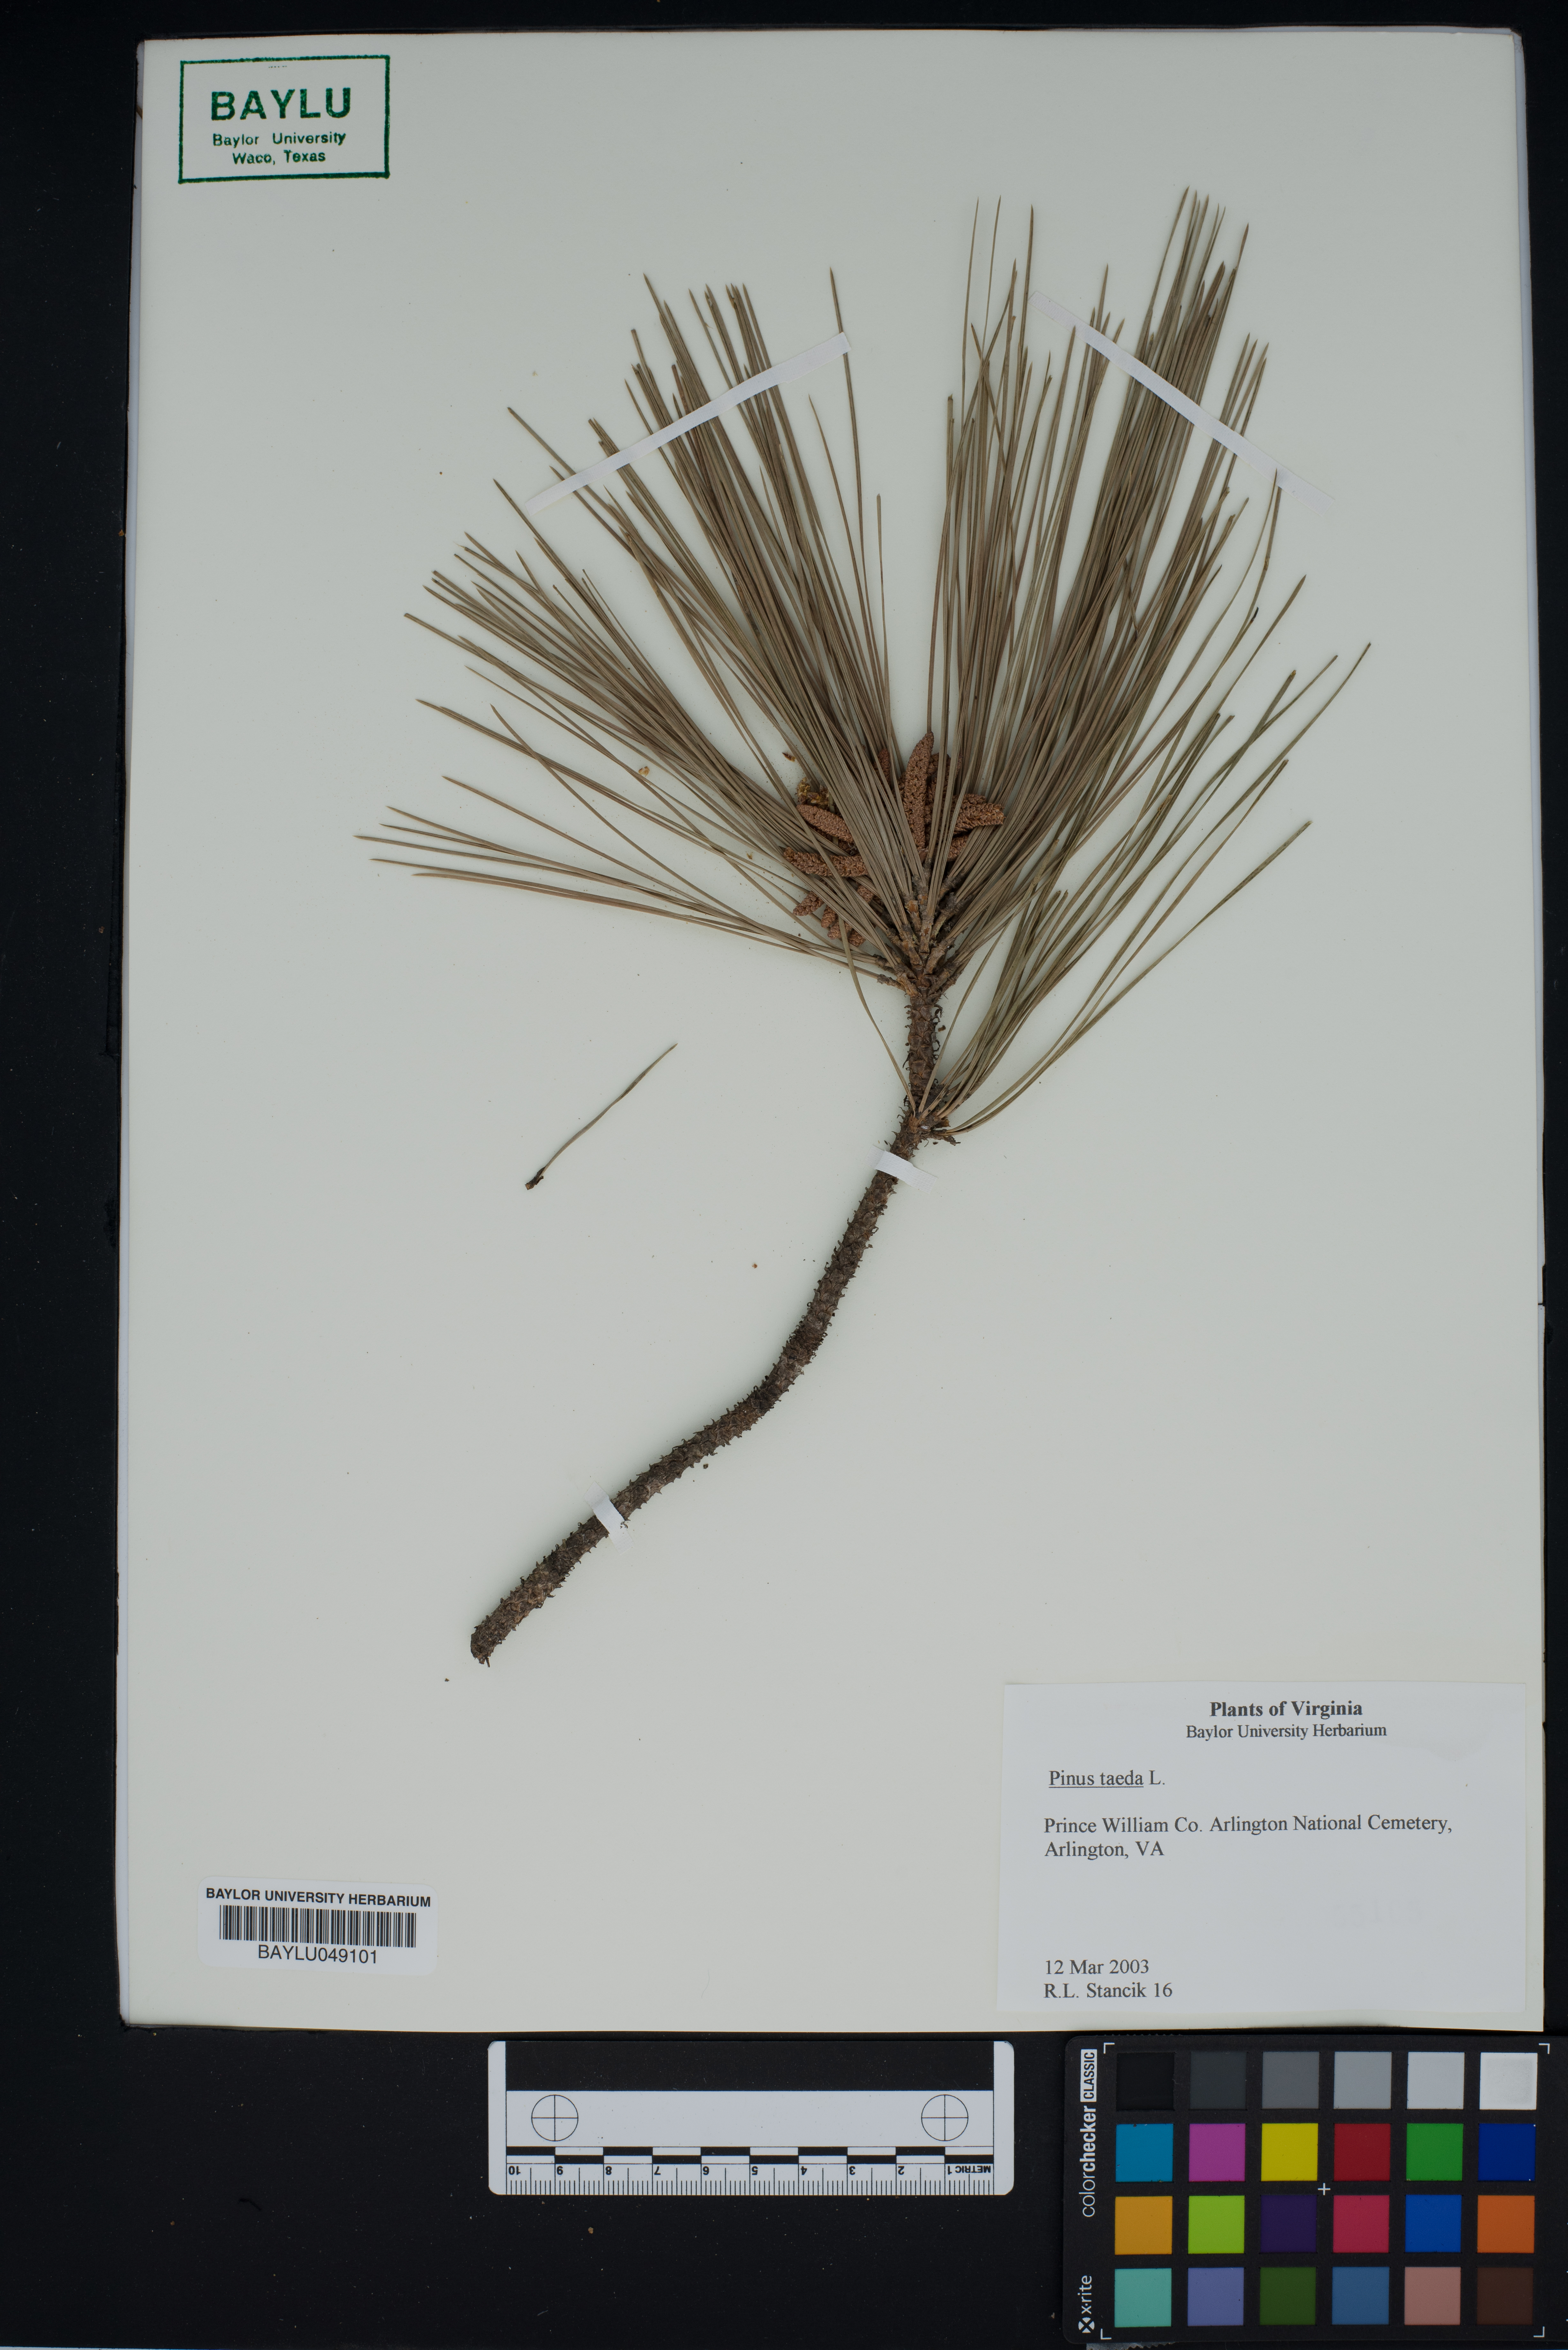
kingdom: Plantae
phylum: Tracheophyta
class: Pinopsida
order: Pinales
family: Pinaceae
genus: Pinus
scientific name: Pinus taeda
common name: Loblolly pine
